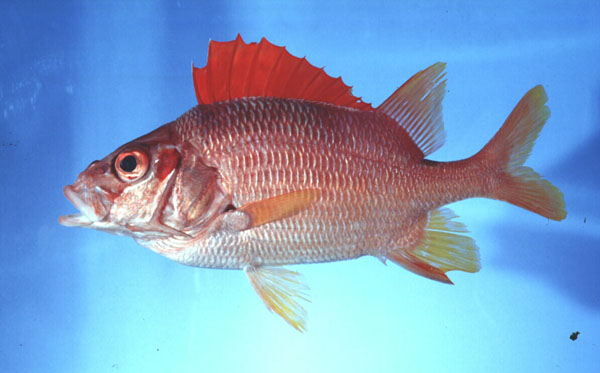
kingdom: Animalia
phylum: Chordata
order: Beryciformes
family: Holocentridae
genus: Sargocentron
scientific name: Sargocentron spiniferum
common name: Giant squirrelfish
